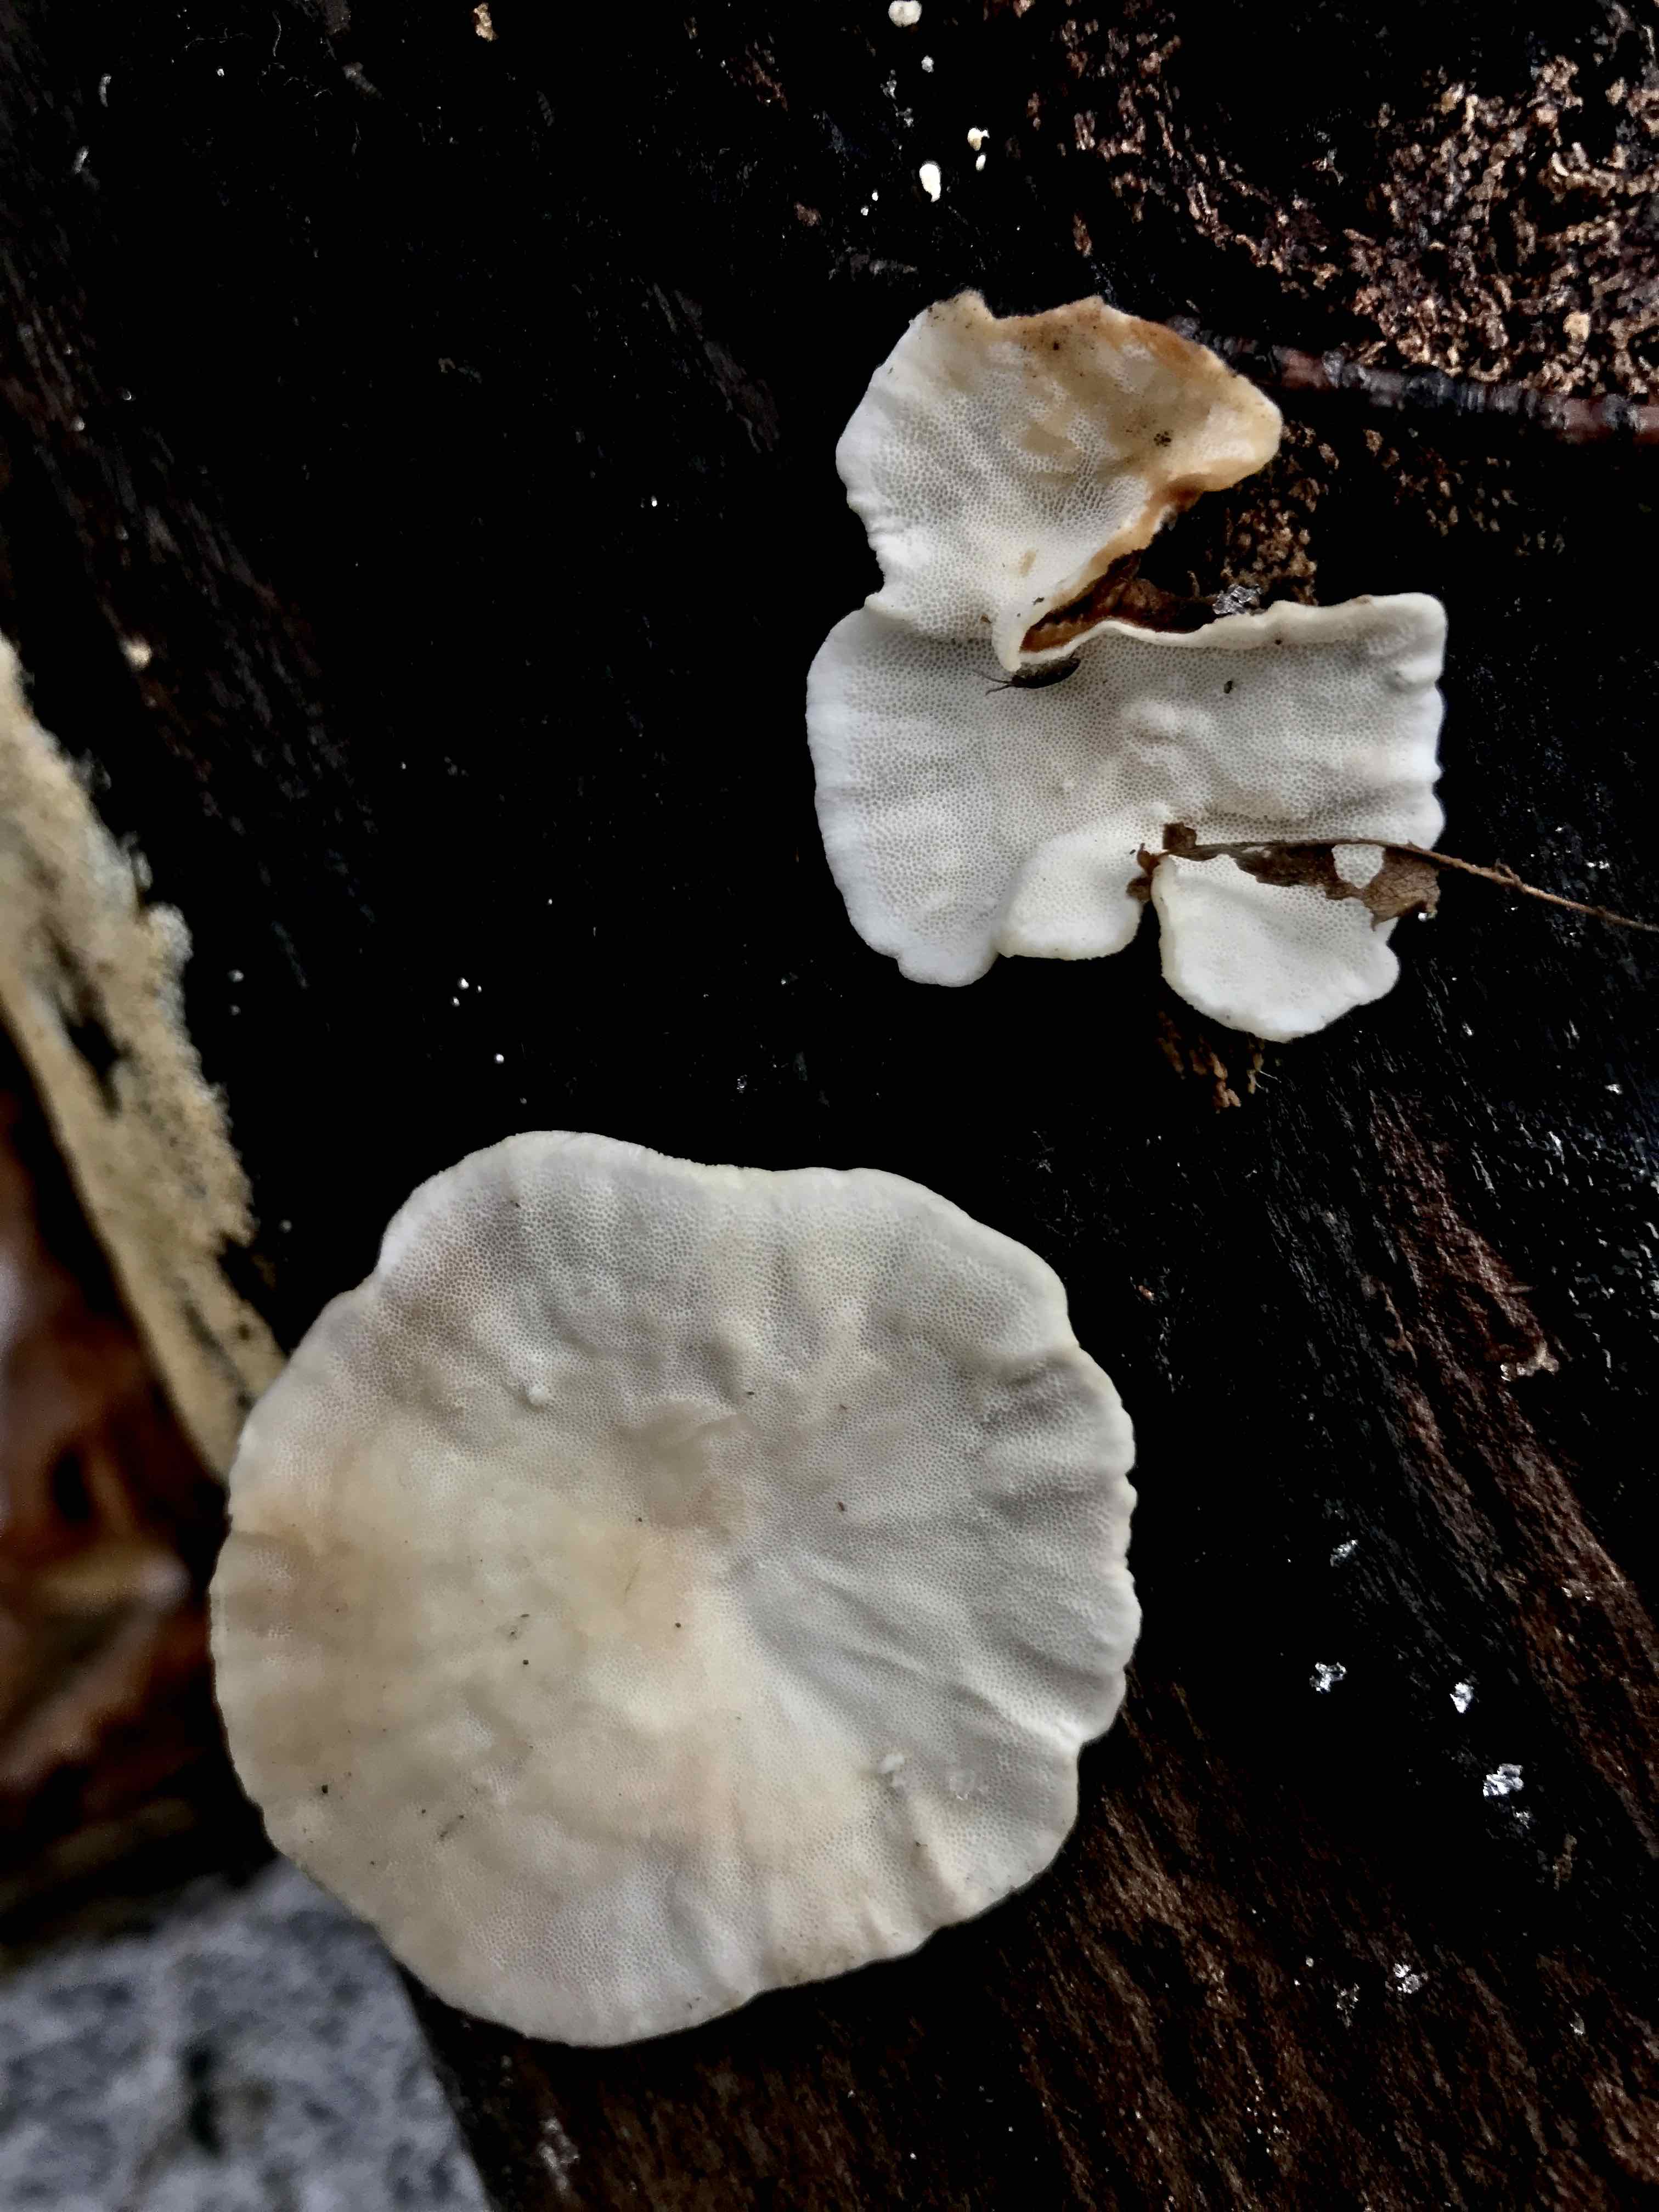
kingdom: Fungi
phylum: Basidiomycota
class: Agaricomycetes
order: Polyporales
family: Polyporaceae
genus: Trametes
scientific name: Trametes versicolor
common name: broget læderporesvamp
